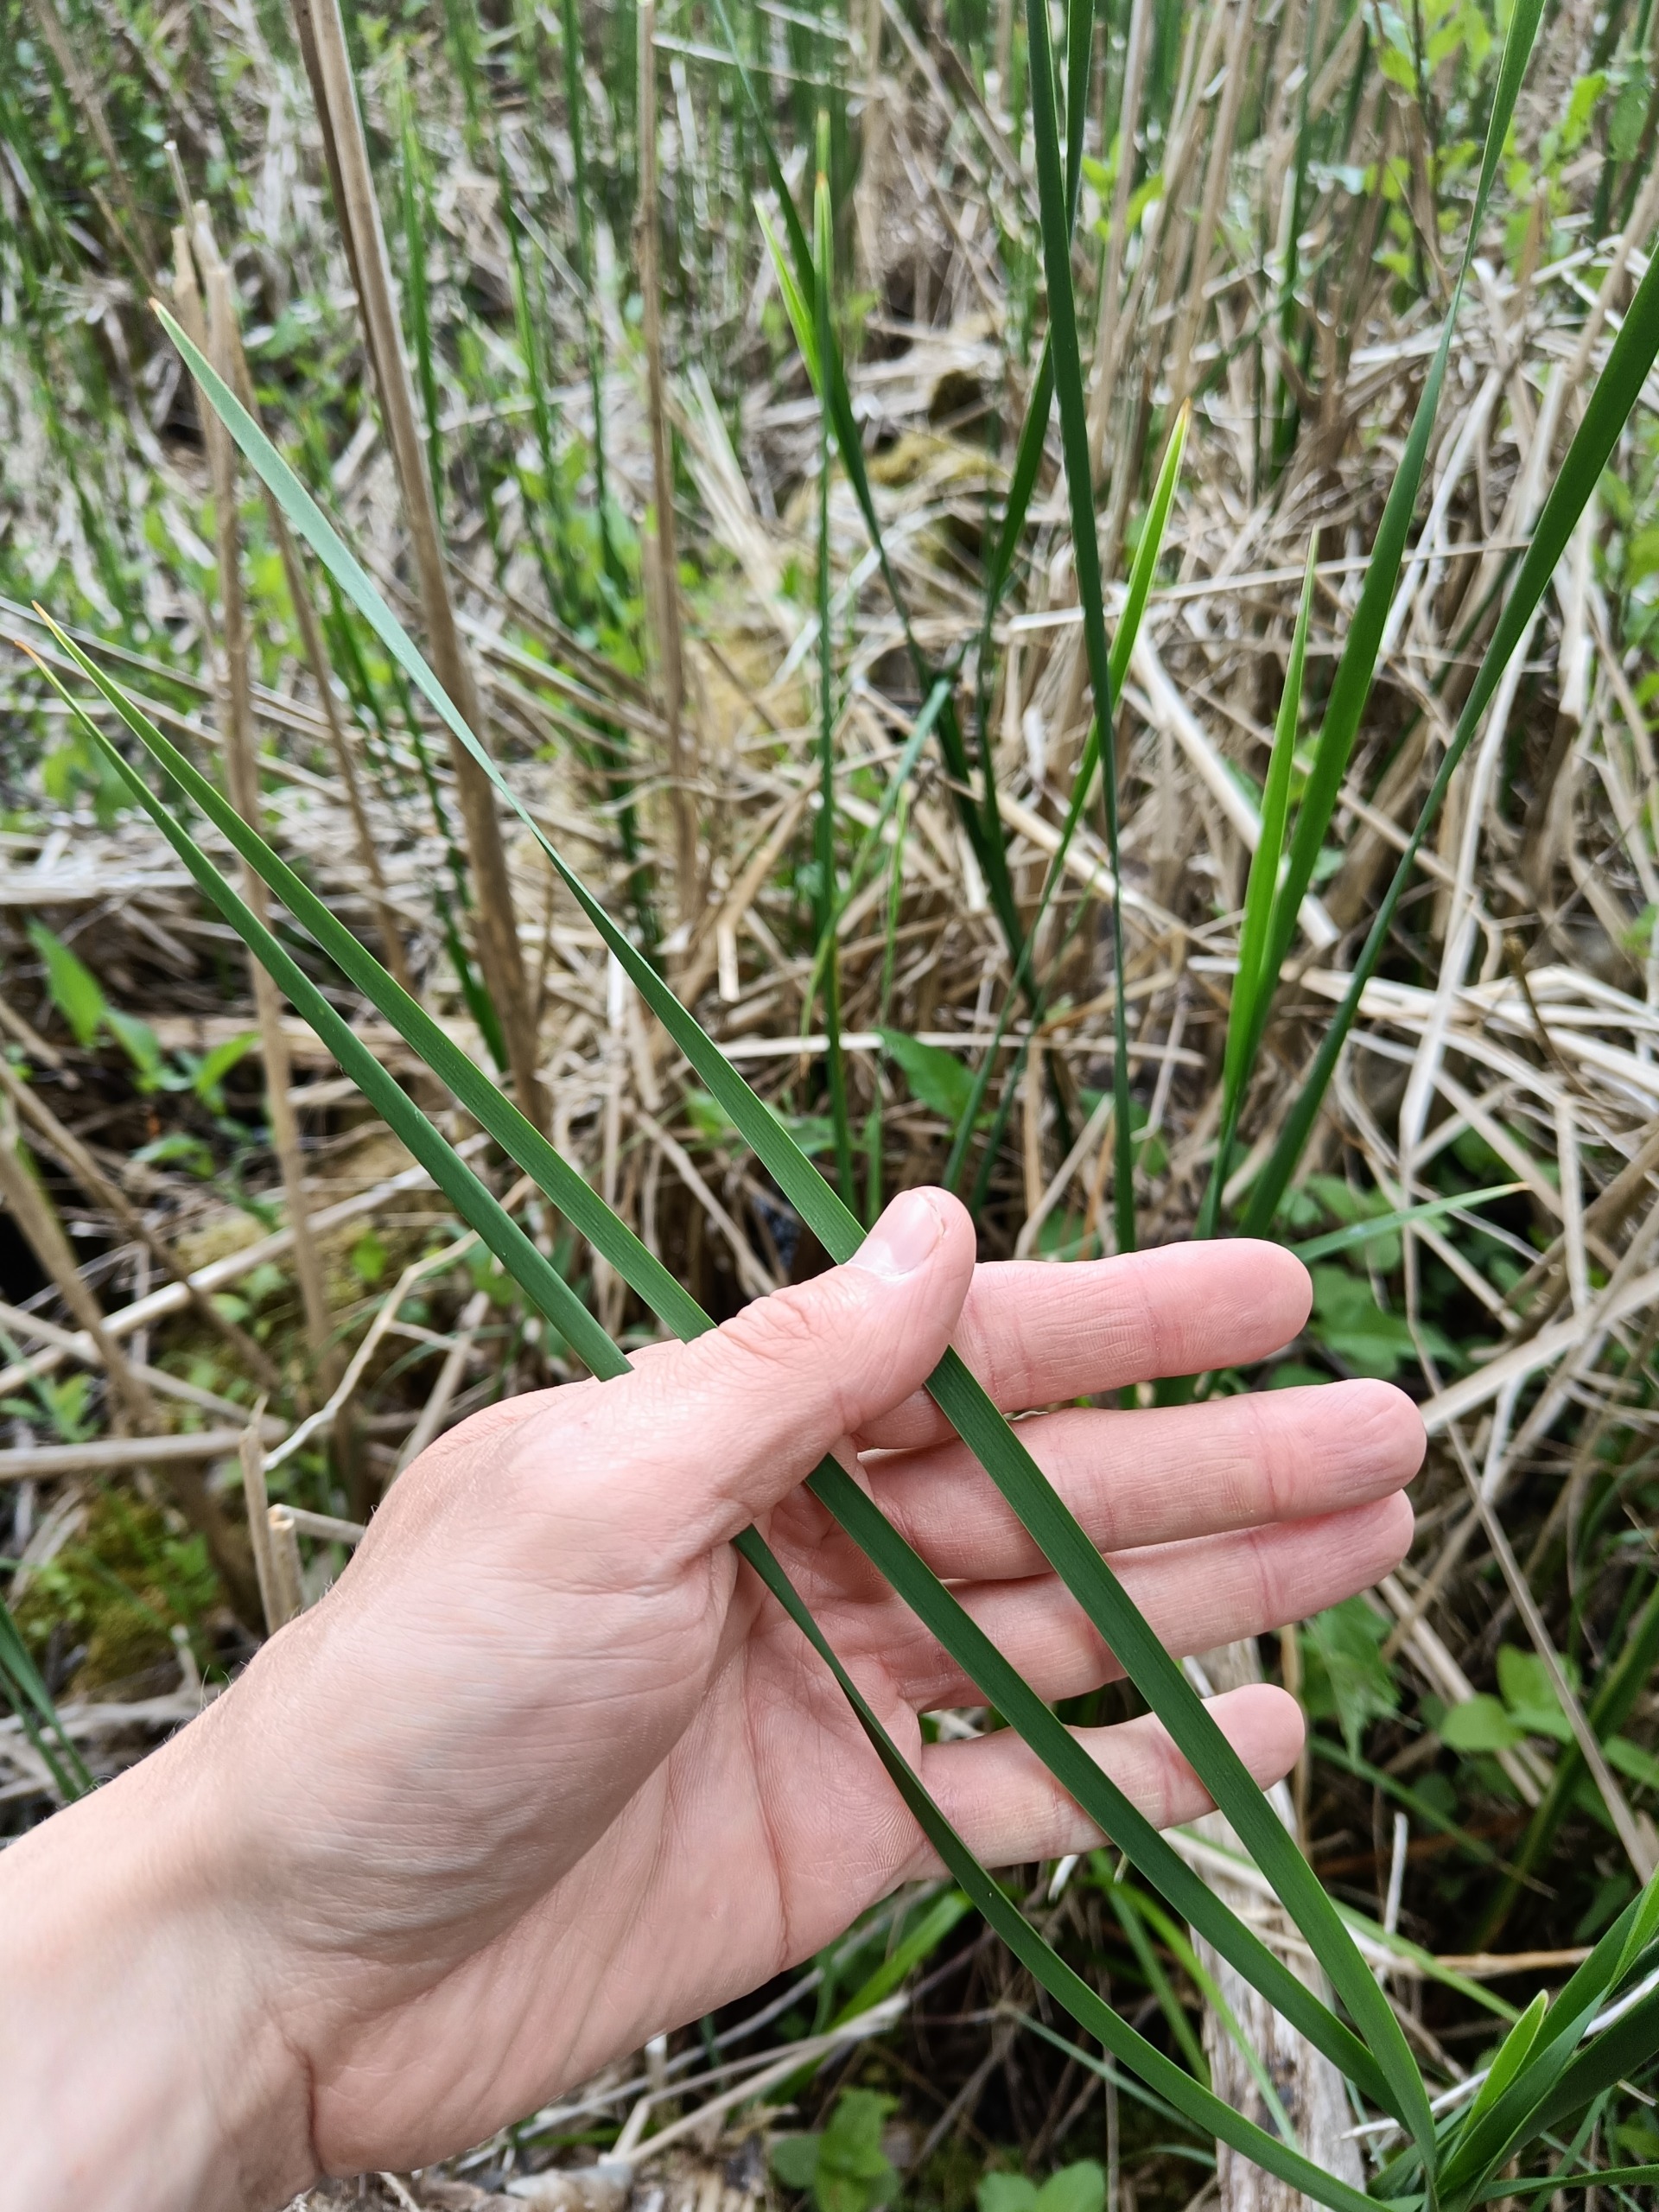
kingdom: Plantae
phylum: Tracheophyta
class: Liliopsida
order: Poales
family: Typhaceae
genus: Typha
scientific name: Typha angustifolia
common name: Smalbladet dunhammer
